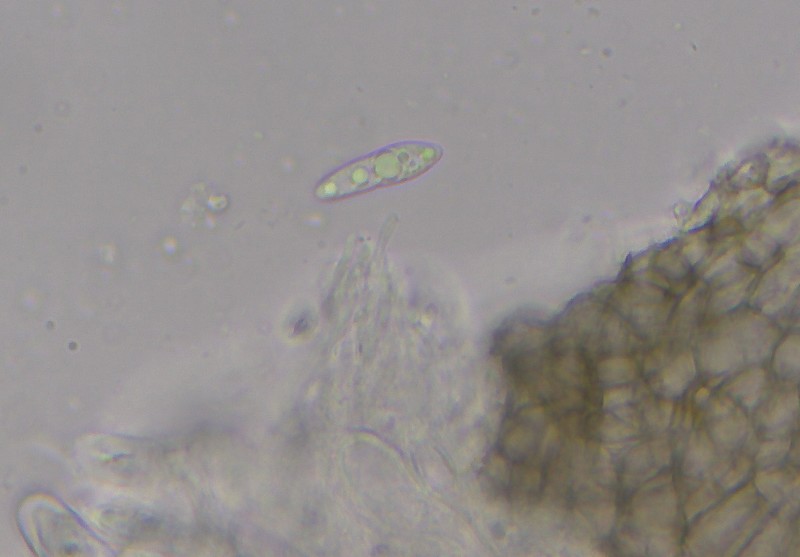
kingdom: Plantae
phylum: Bryophyta
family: Dothideomycetes
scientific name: Dothideomycetes
